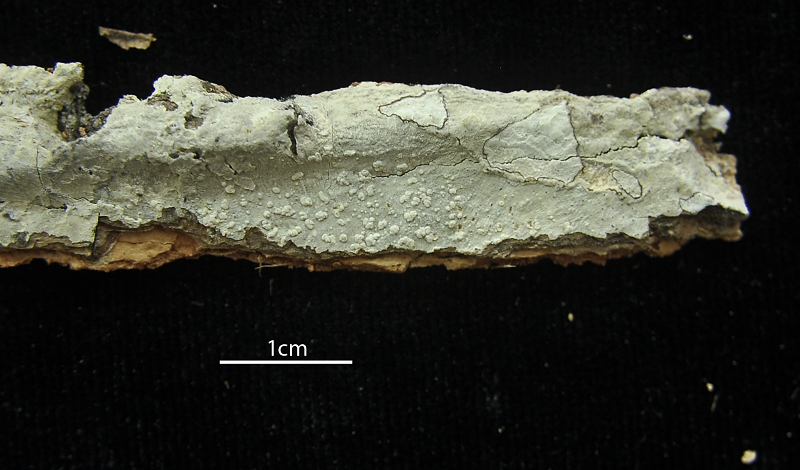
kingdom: Fungi
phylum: Ascomycota
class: Lecanoromycetes
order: Ostropales
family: Graphidaceae
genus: Diorygma
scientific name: Diorygma macgregorii
